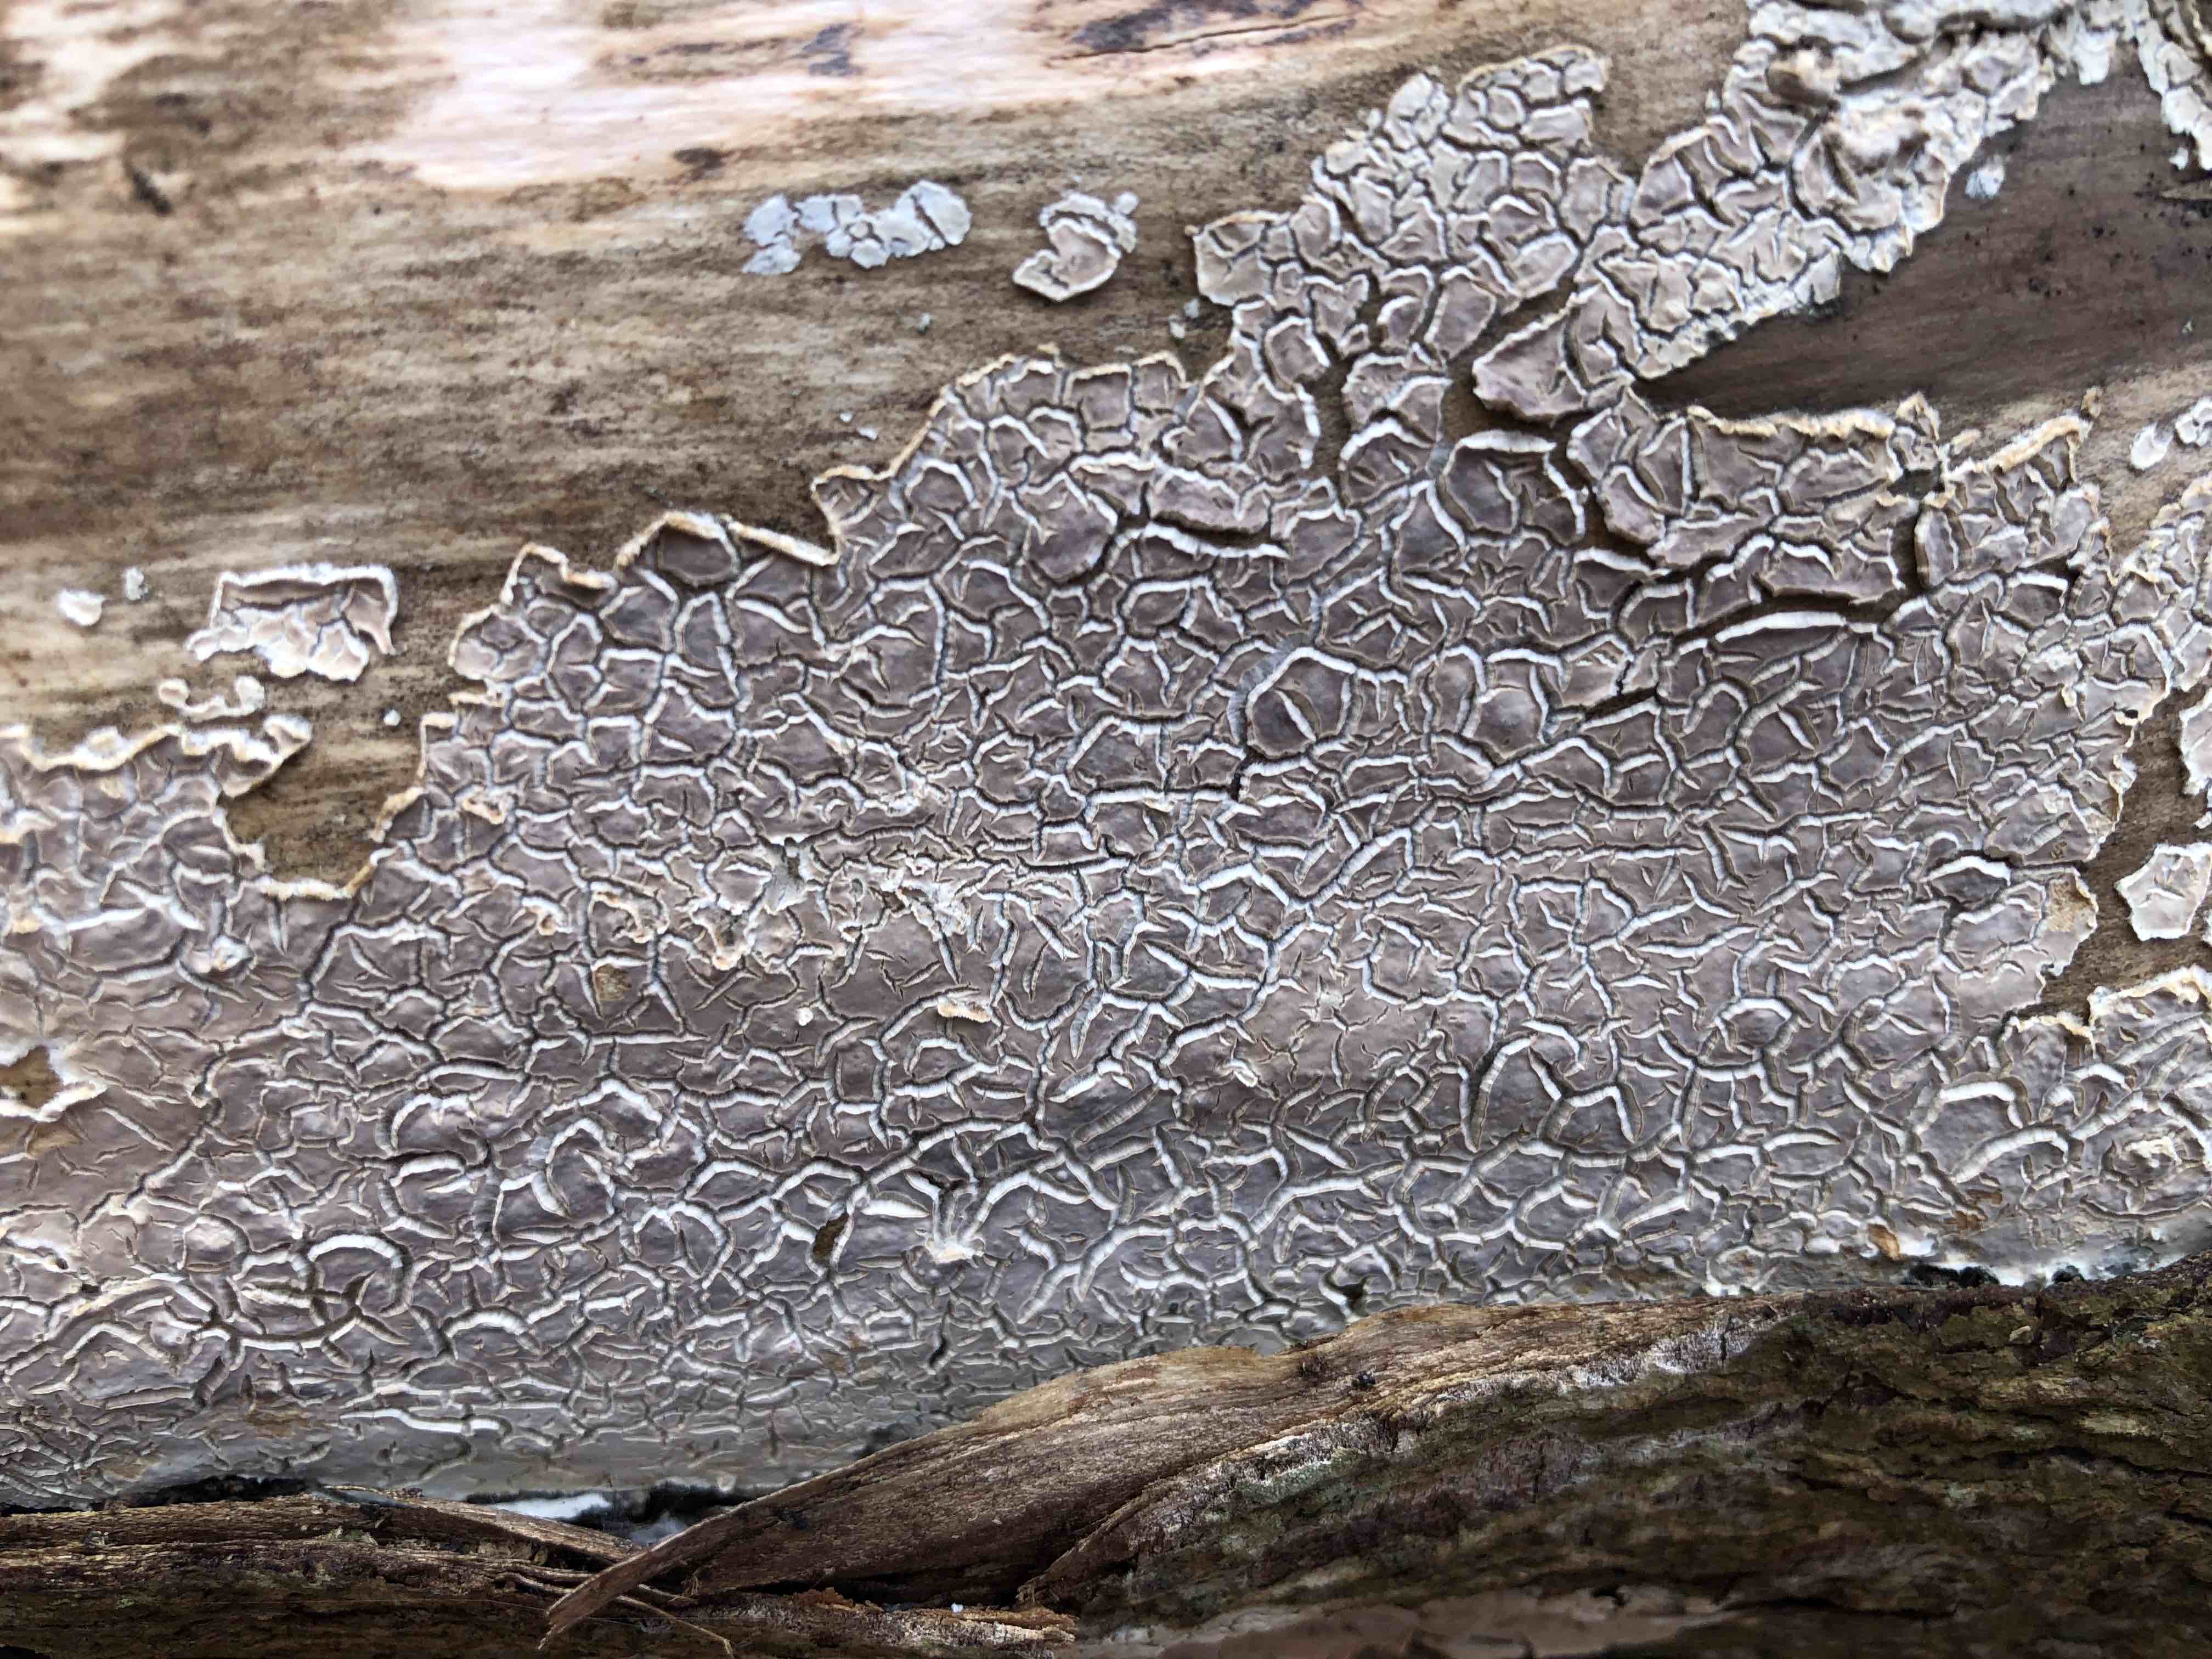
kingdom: Fungi
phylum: Basidiomycota
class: Agaricomycetes
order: Agaricales
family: Physalacriaceae
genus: Cylindrobasidium
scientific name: Cylindrobasidium evolvens
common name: sprækkehinde
